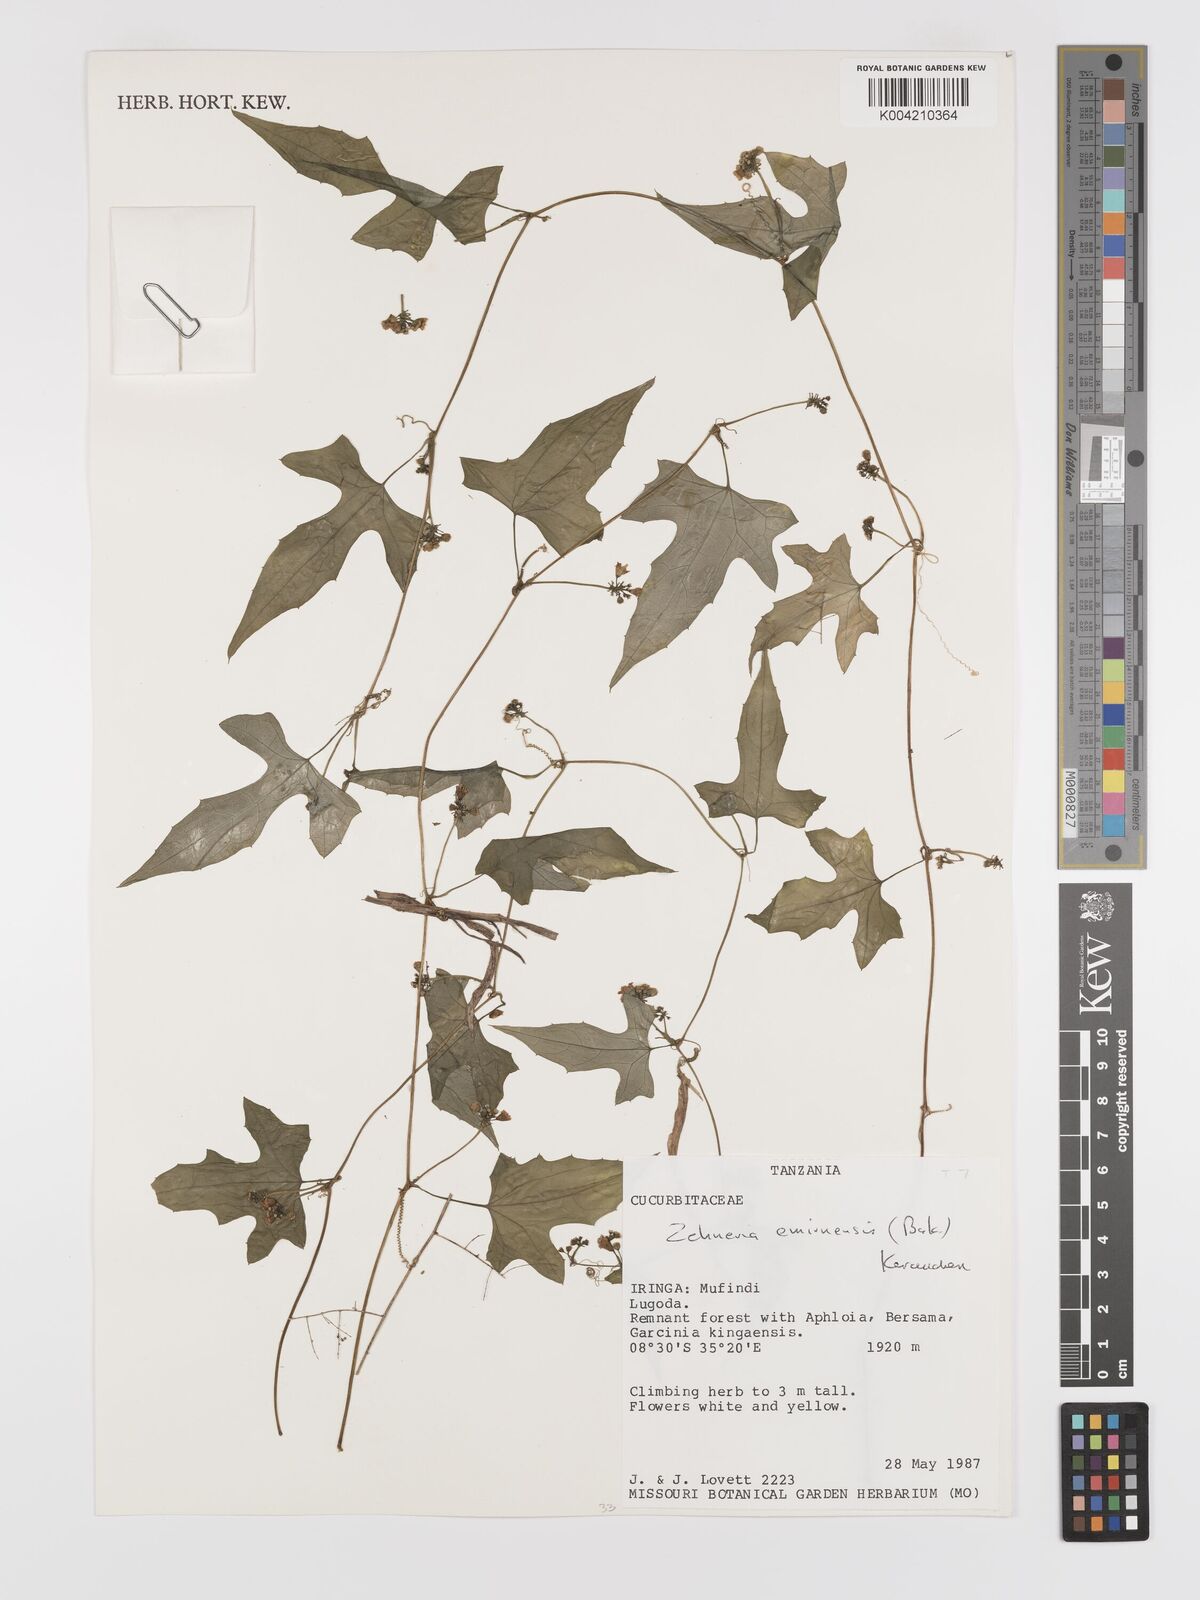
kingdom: Plantae
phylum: Tracheophyta
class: Magnoliopsida
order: Cucurbitales
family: Cucurbitaceae
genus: Zehneria
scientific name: Zehneria emirnensis
